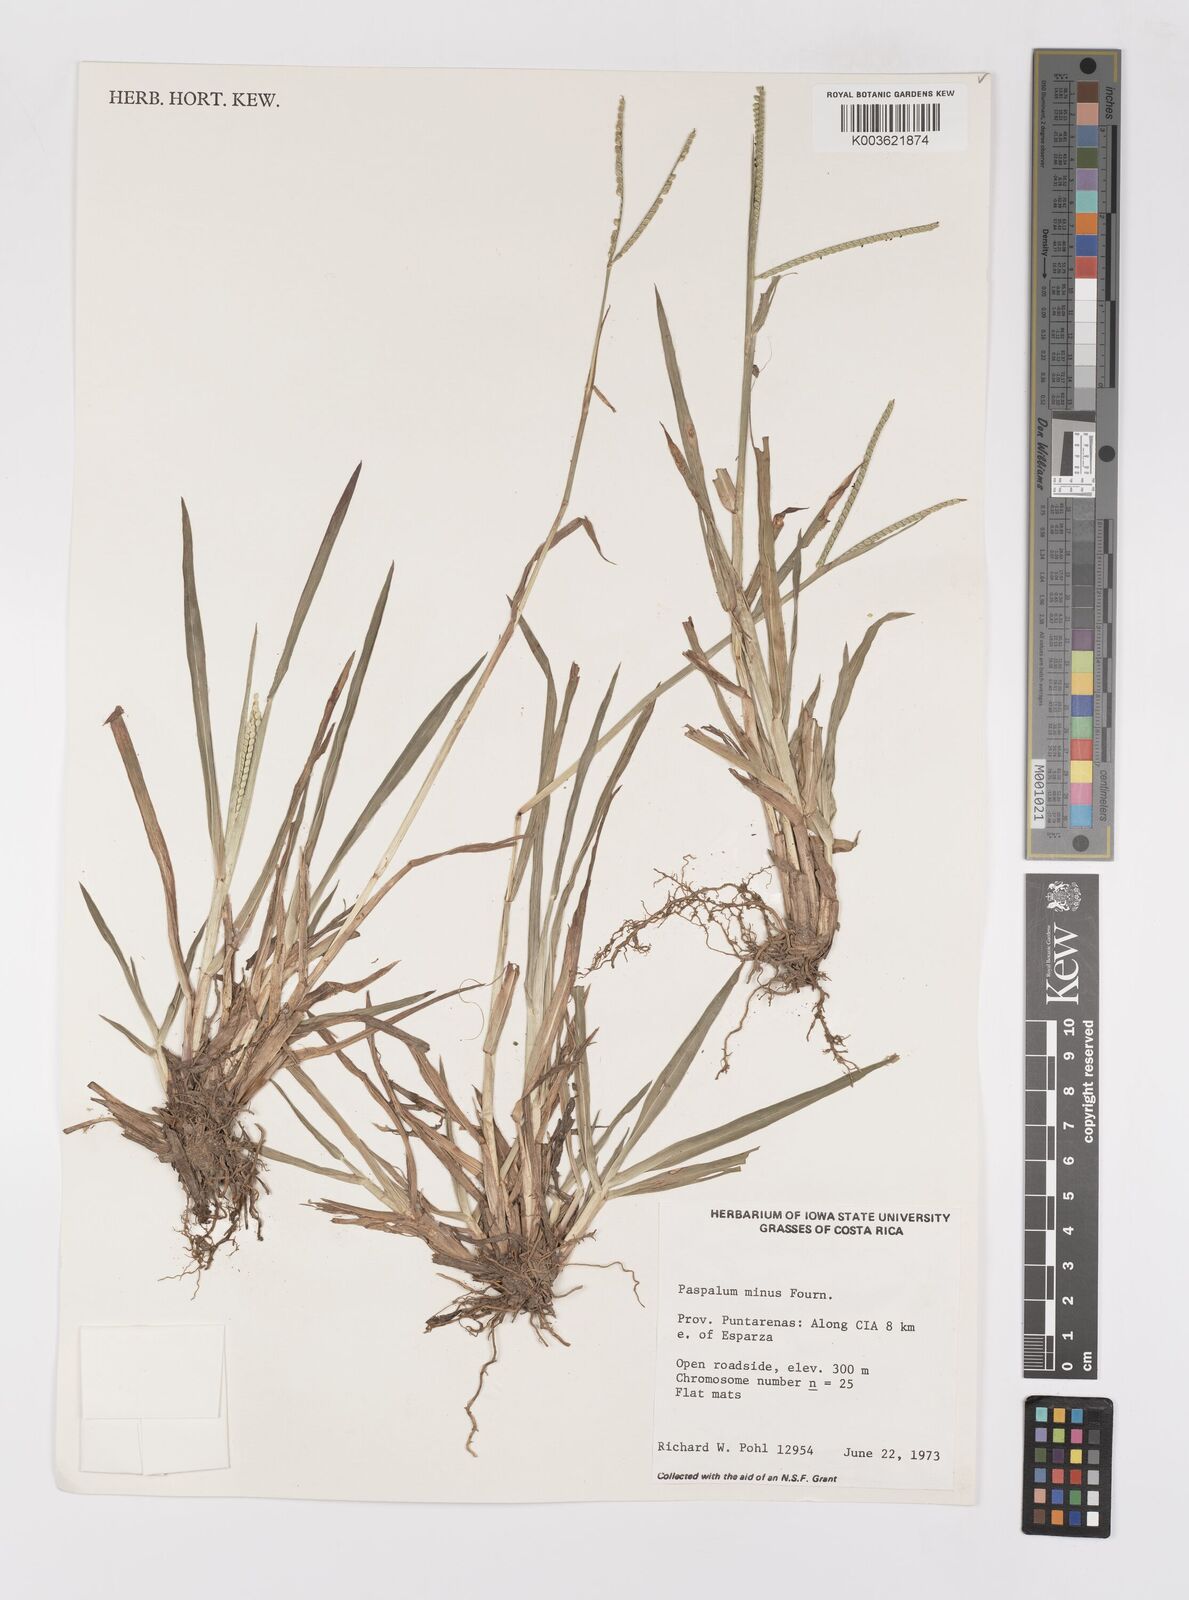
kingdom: Plantae
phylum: Tracheophyta
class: Liliopsida
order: Poales
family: Poaceae
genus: Paspalum
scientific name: Paspalum minus
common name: Matted paspalum
